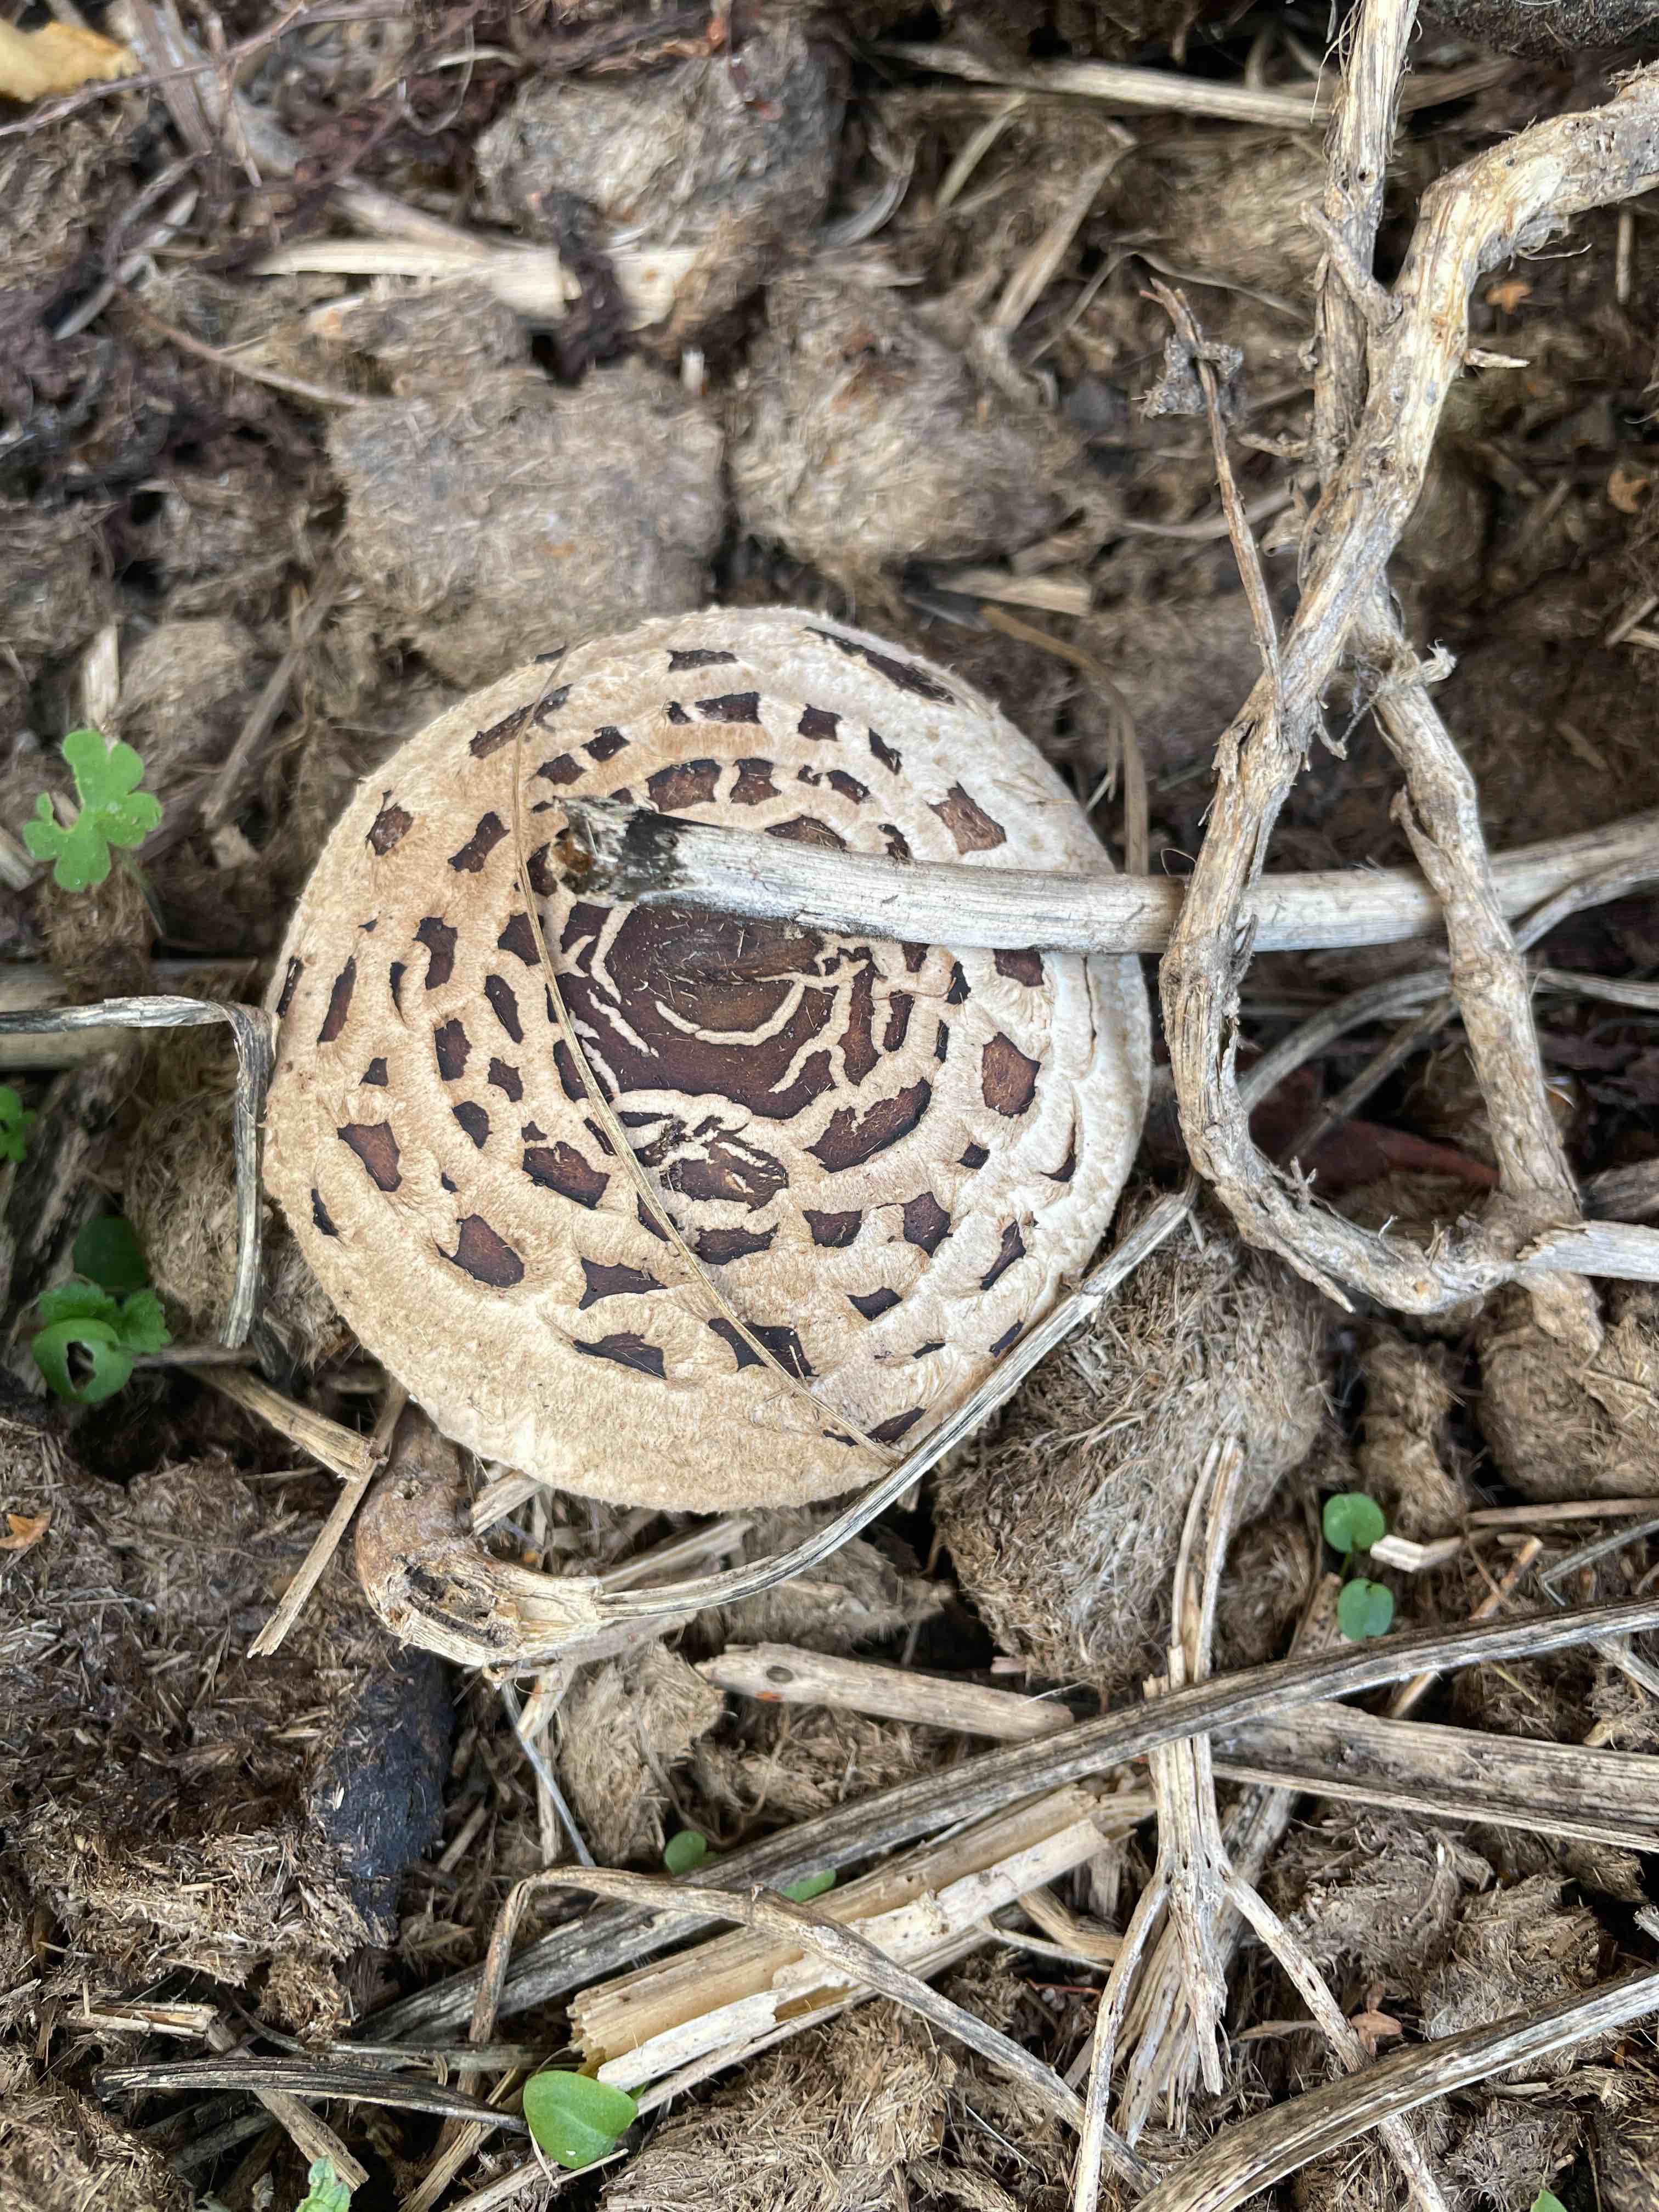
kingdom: Fungi
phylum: Basidiomycota
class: Agaricomycetes
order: Agaricales
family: Agaricaceae
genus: Chlorophyllum
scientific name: Chlorophyllum
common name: rabarberhat
